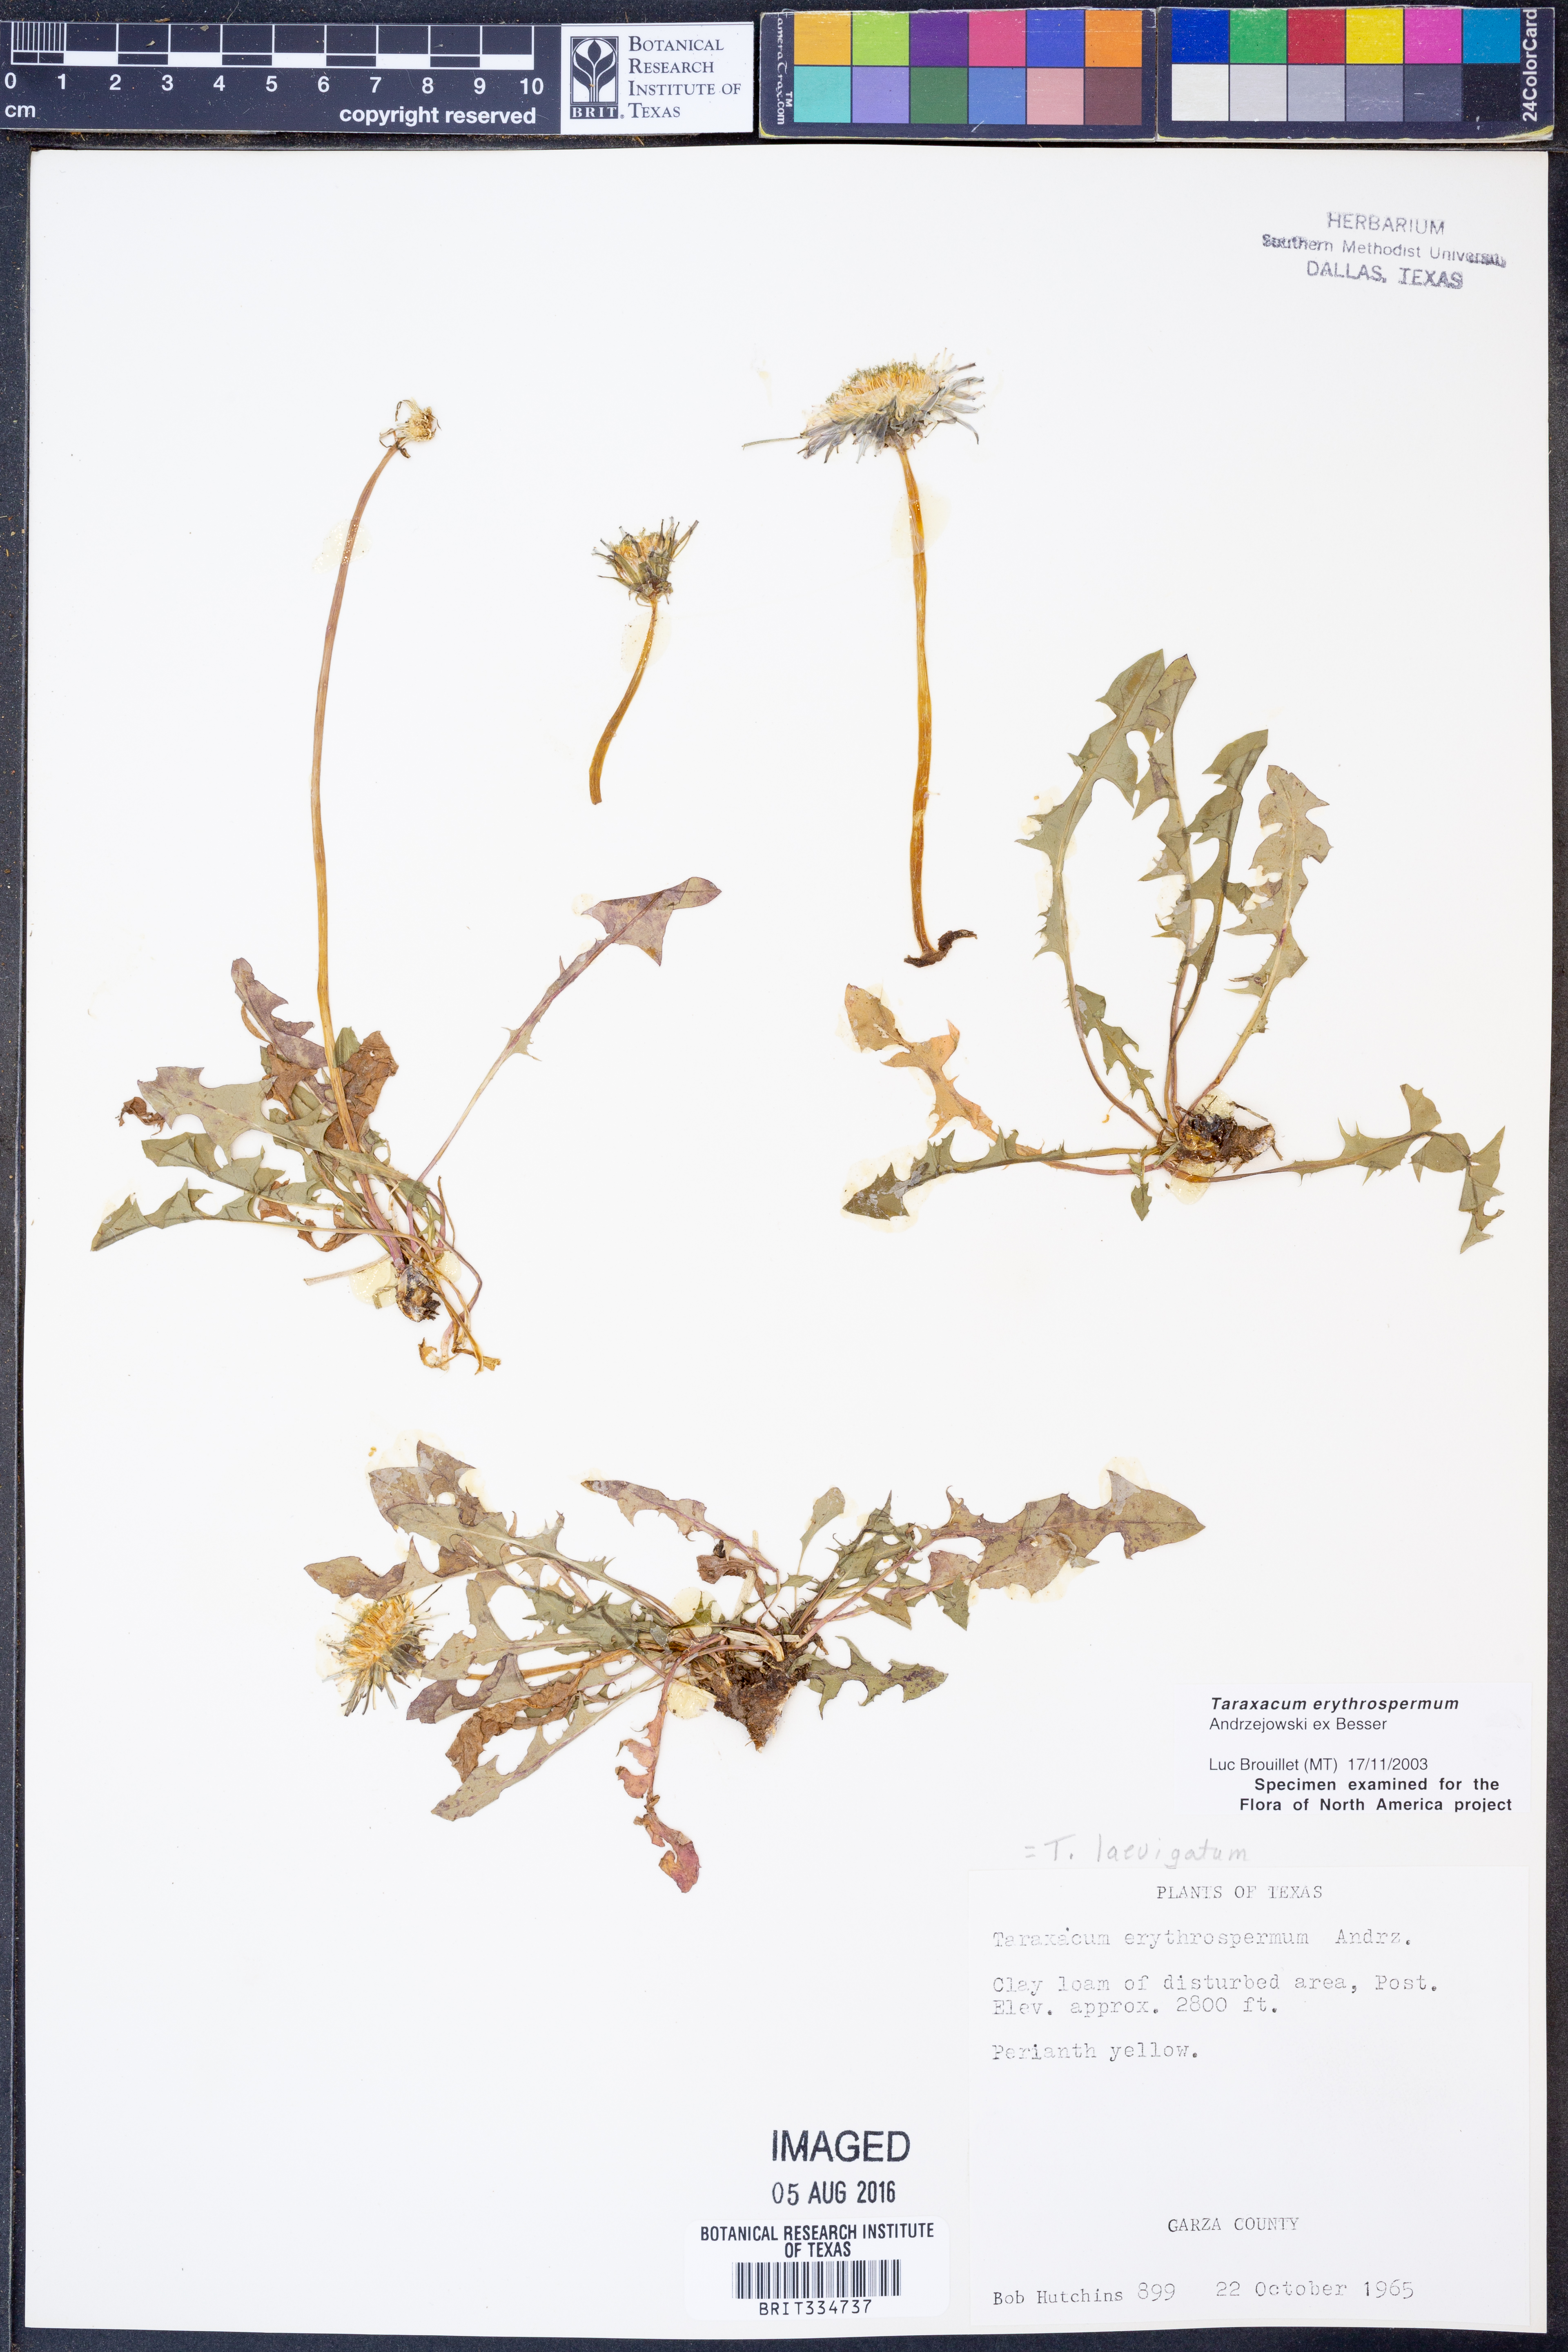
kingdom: Plantae
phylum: Tracheophyta
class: Magnoliopsida
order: Asterales
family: Asteraceae
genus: Taraxacum
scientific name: Taraxacum erythrospermum
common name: Rock dandelion
